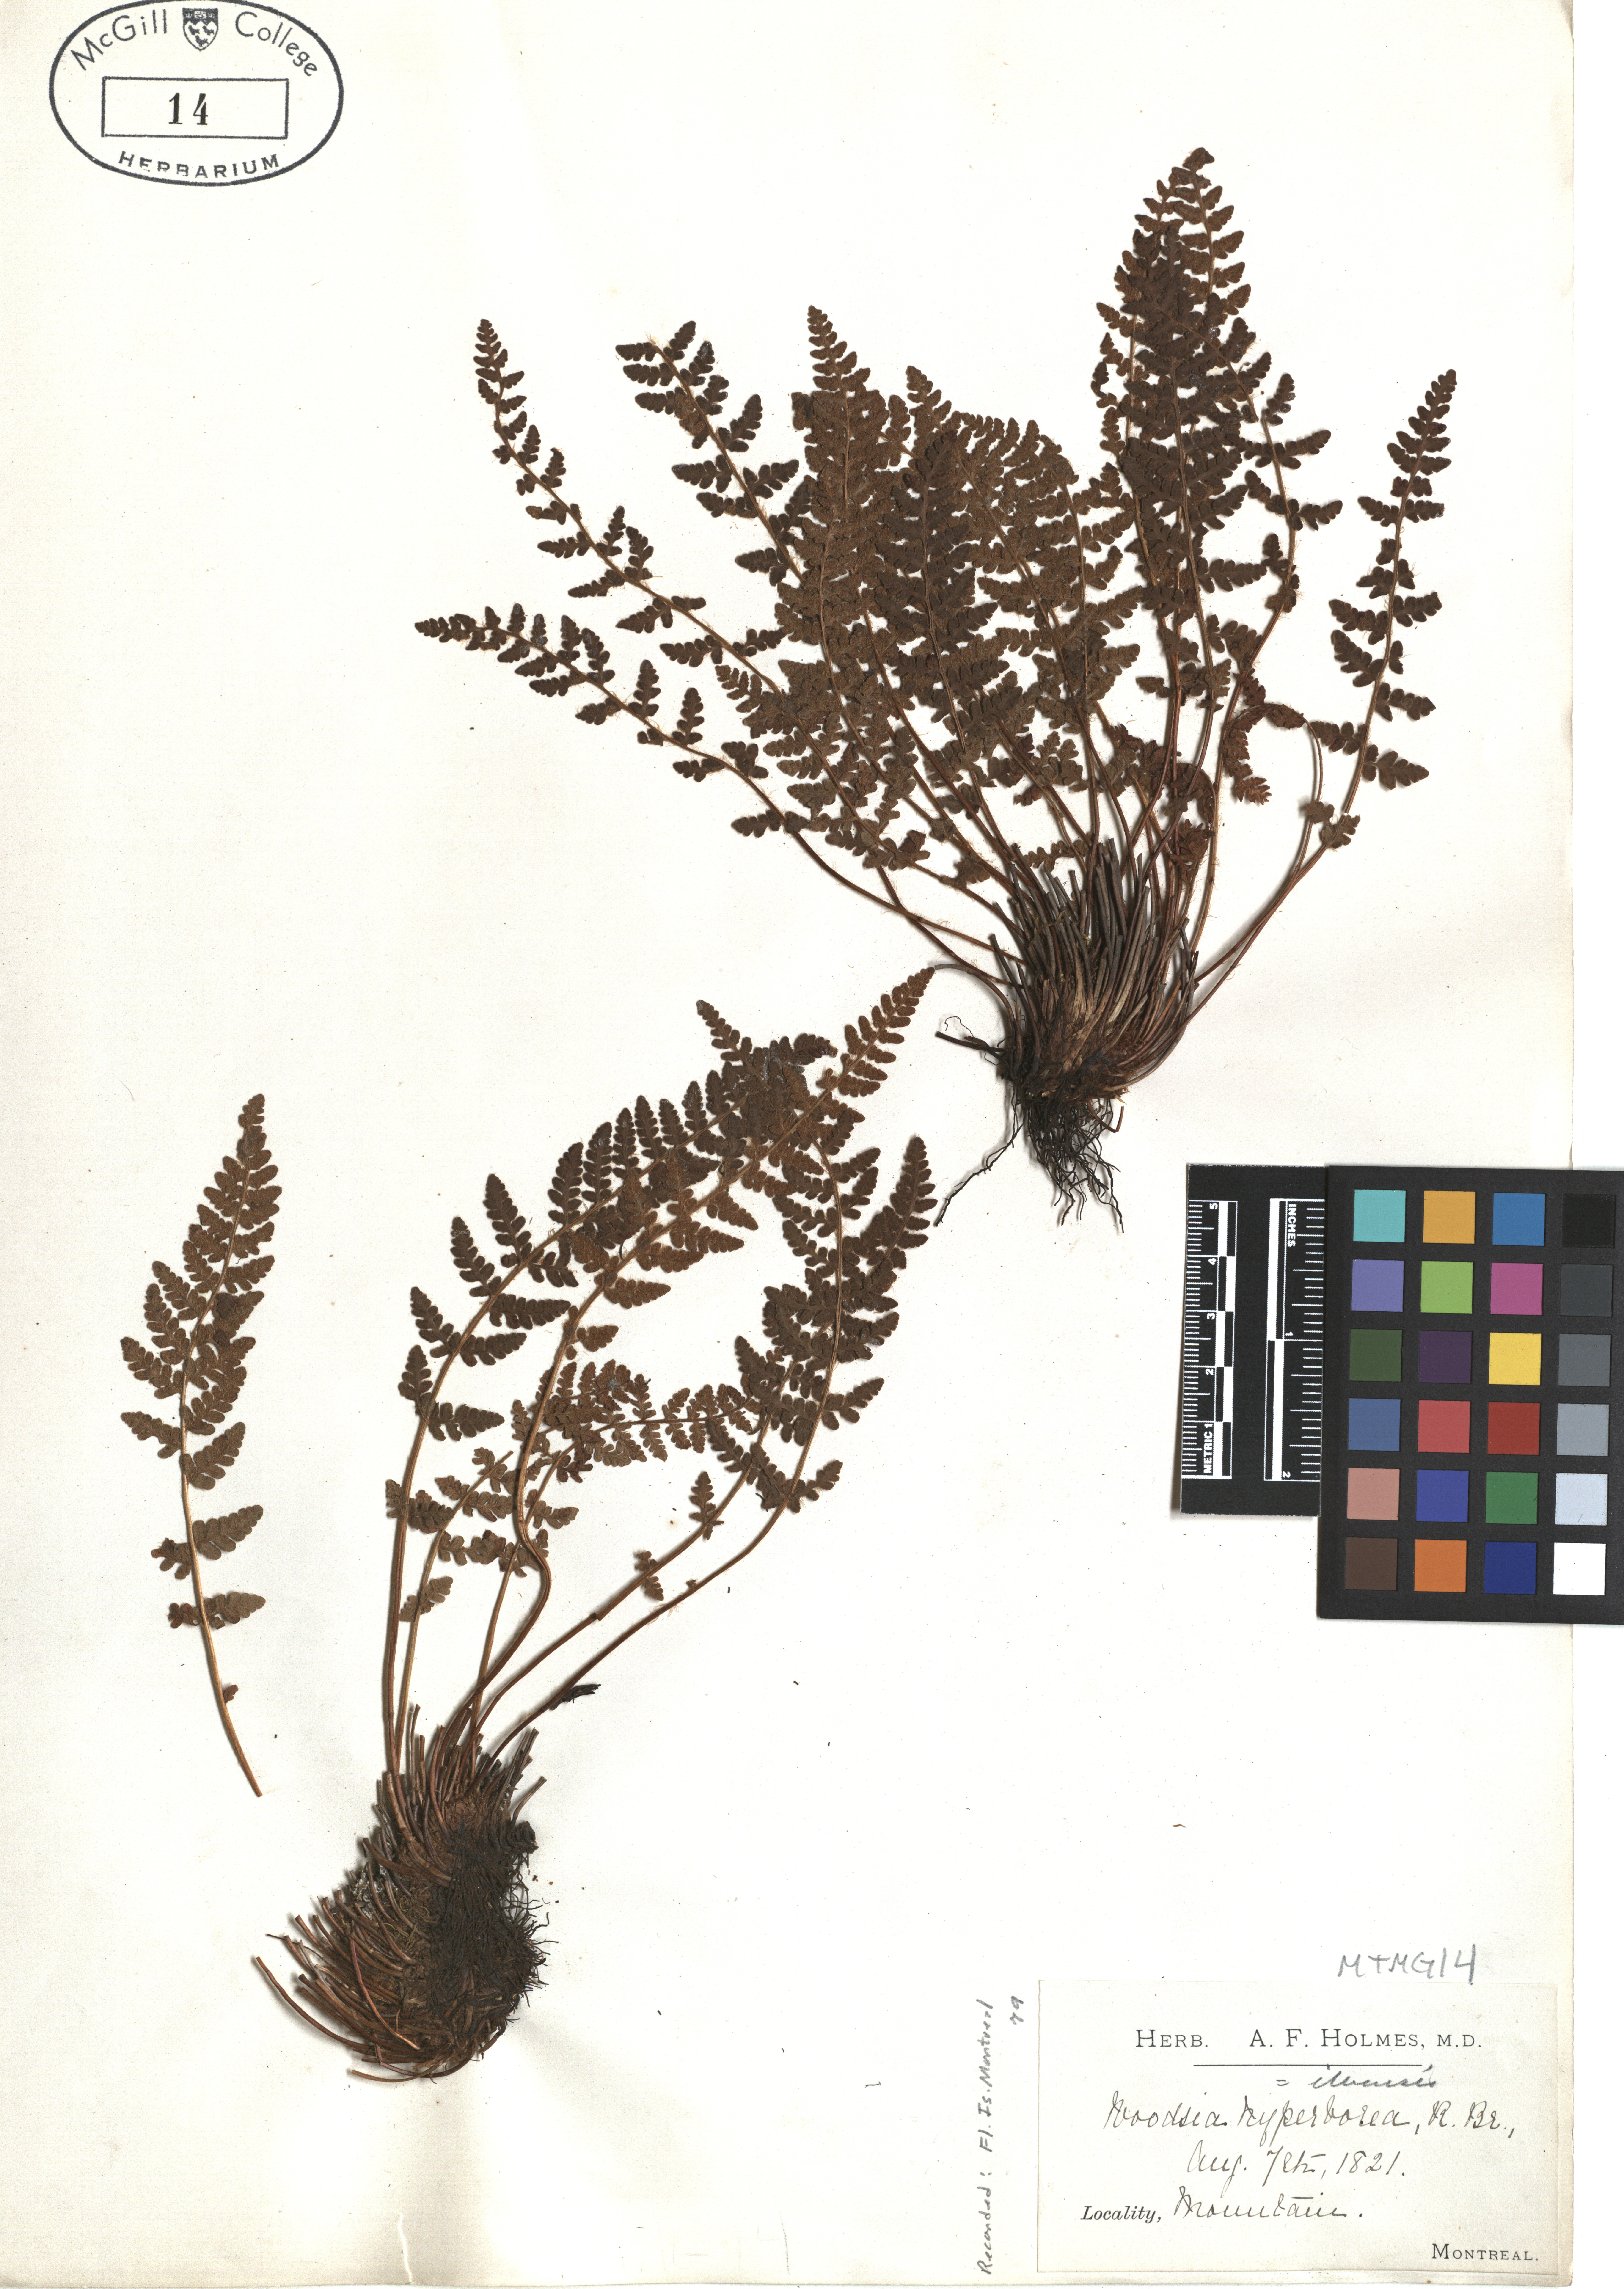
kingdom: Plantae
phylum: Tracheophyta
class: Polypodiopsida
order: Polypodiales
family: Woodsiaceae
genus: Woodsia
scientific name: Woodsia alpina
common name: Alpine woodsia
